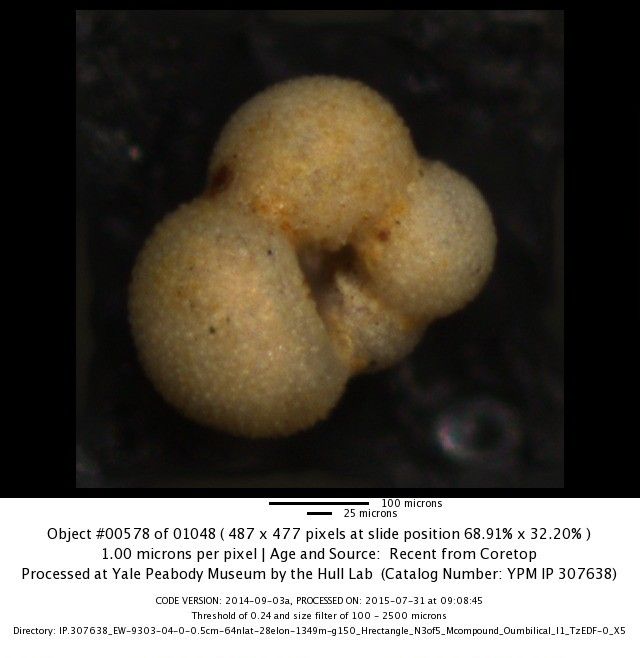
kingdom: Chromista
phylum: Foraminifera
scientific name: Foraminifera
